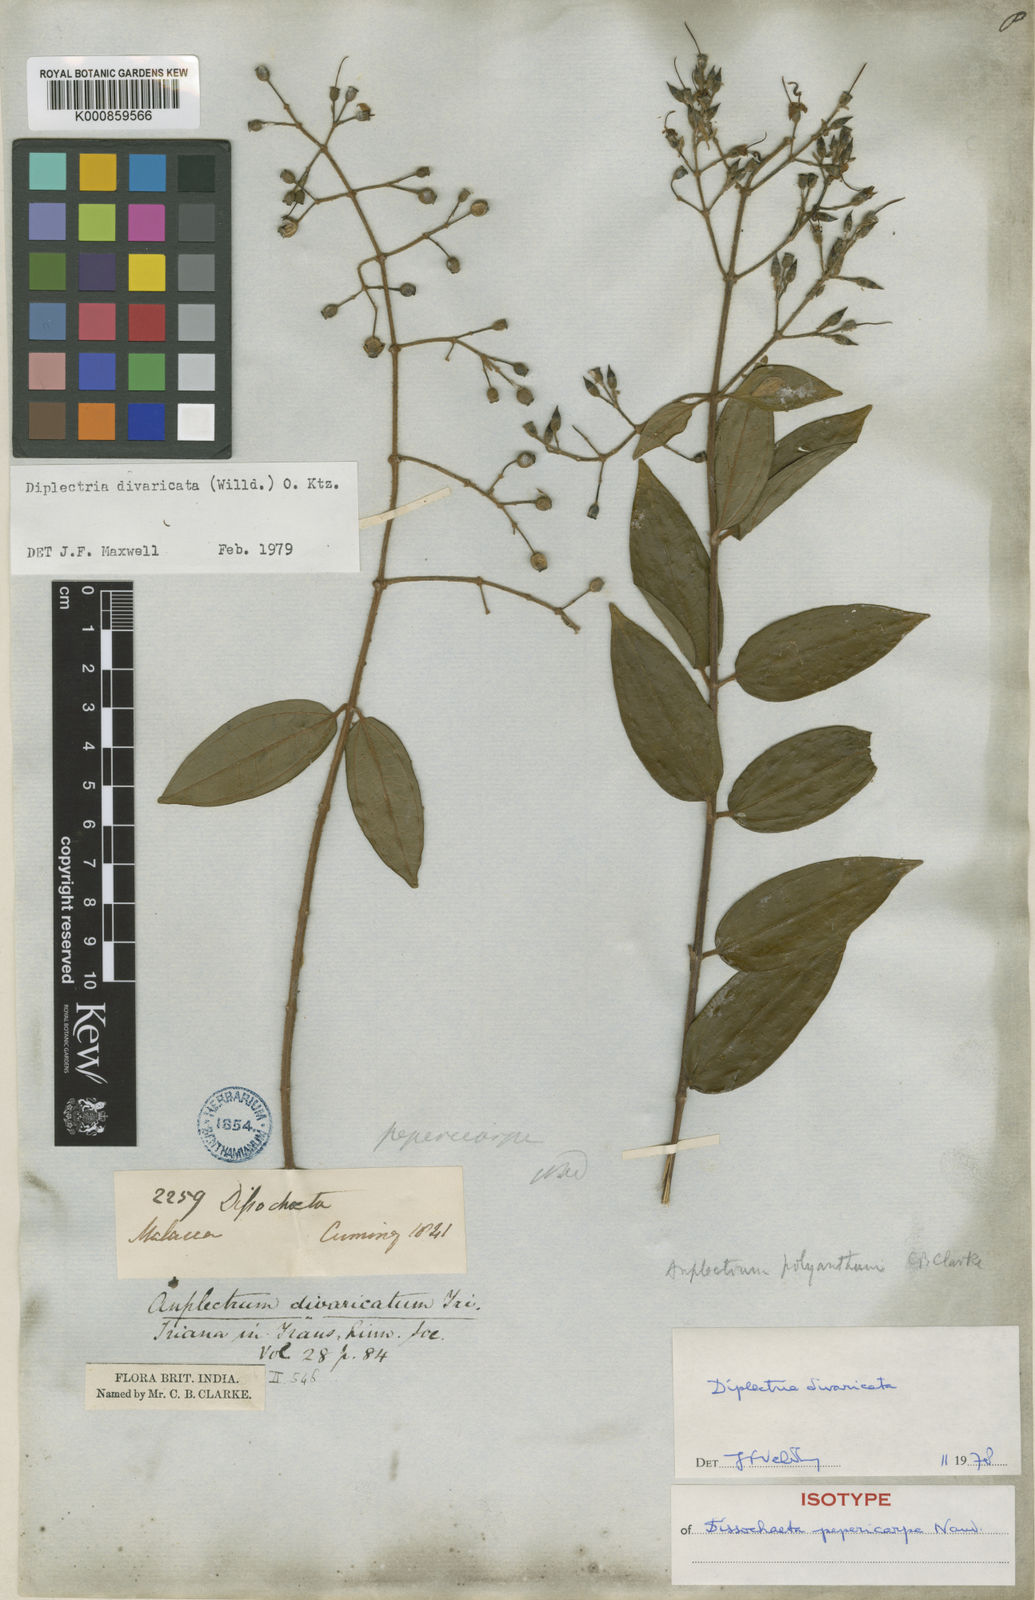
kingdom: Plantae
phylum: Tracheophyta
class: Magnoliopsida
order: Myrtales
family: Melastomataceae
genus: Diplectria
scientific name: Diplectria divaricata
